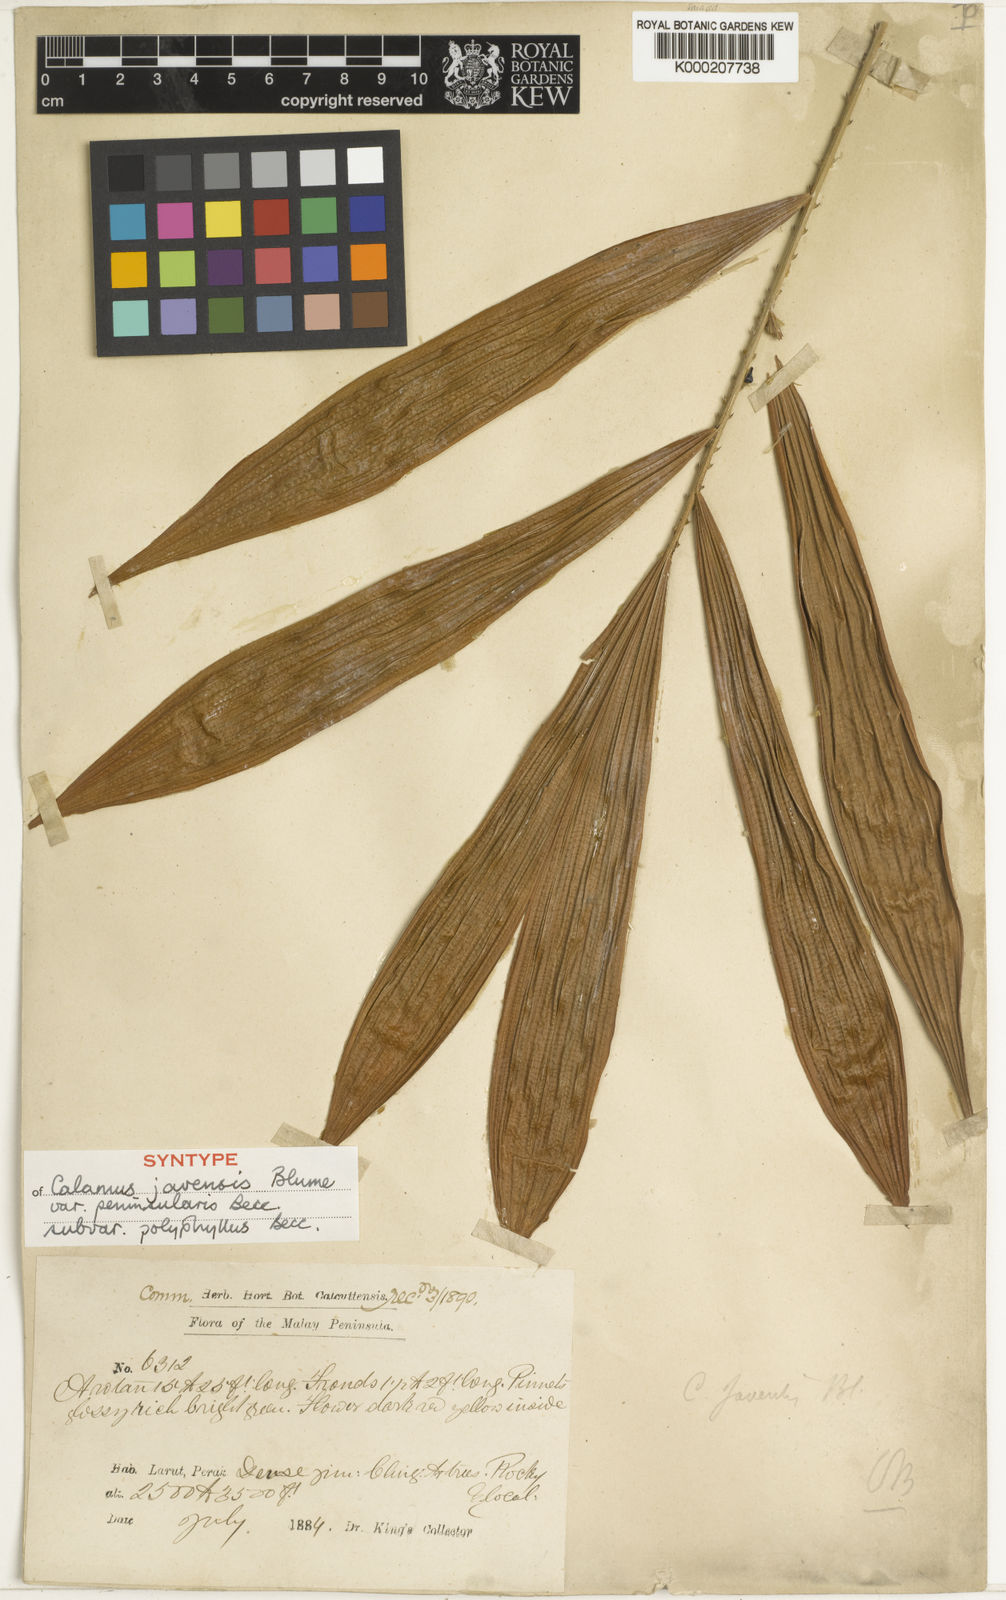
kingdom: Plantae
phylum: Tracheophyta
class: Liliopsida
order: Arecales
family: Arecaceae
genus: Calamus
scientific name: Calamus javensis
